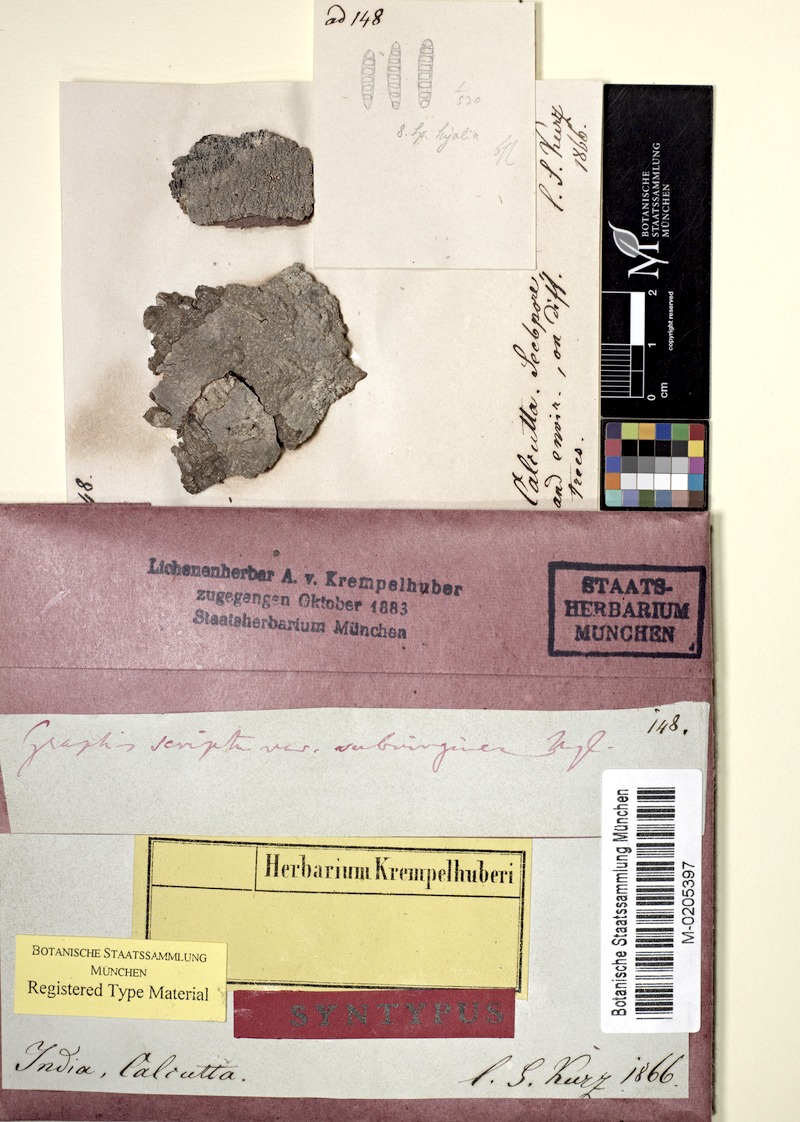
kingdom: Fungi
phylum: Ascomycota
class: Lecanoromycetes
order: Ostropales
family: Graphidaceae
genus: Graphis
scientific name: Graphis scripta
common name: Script lichen
